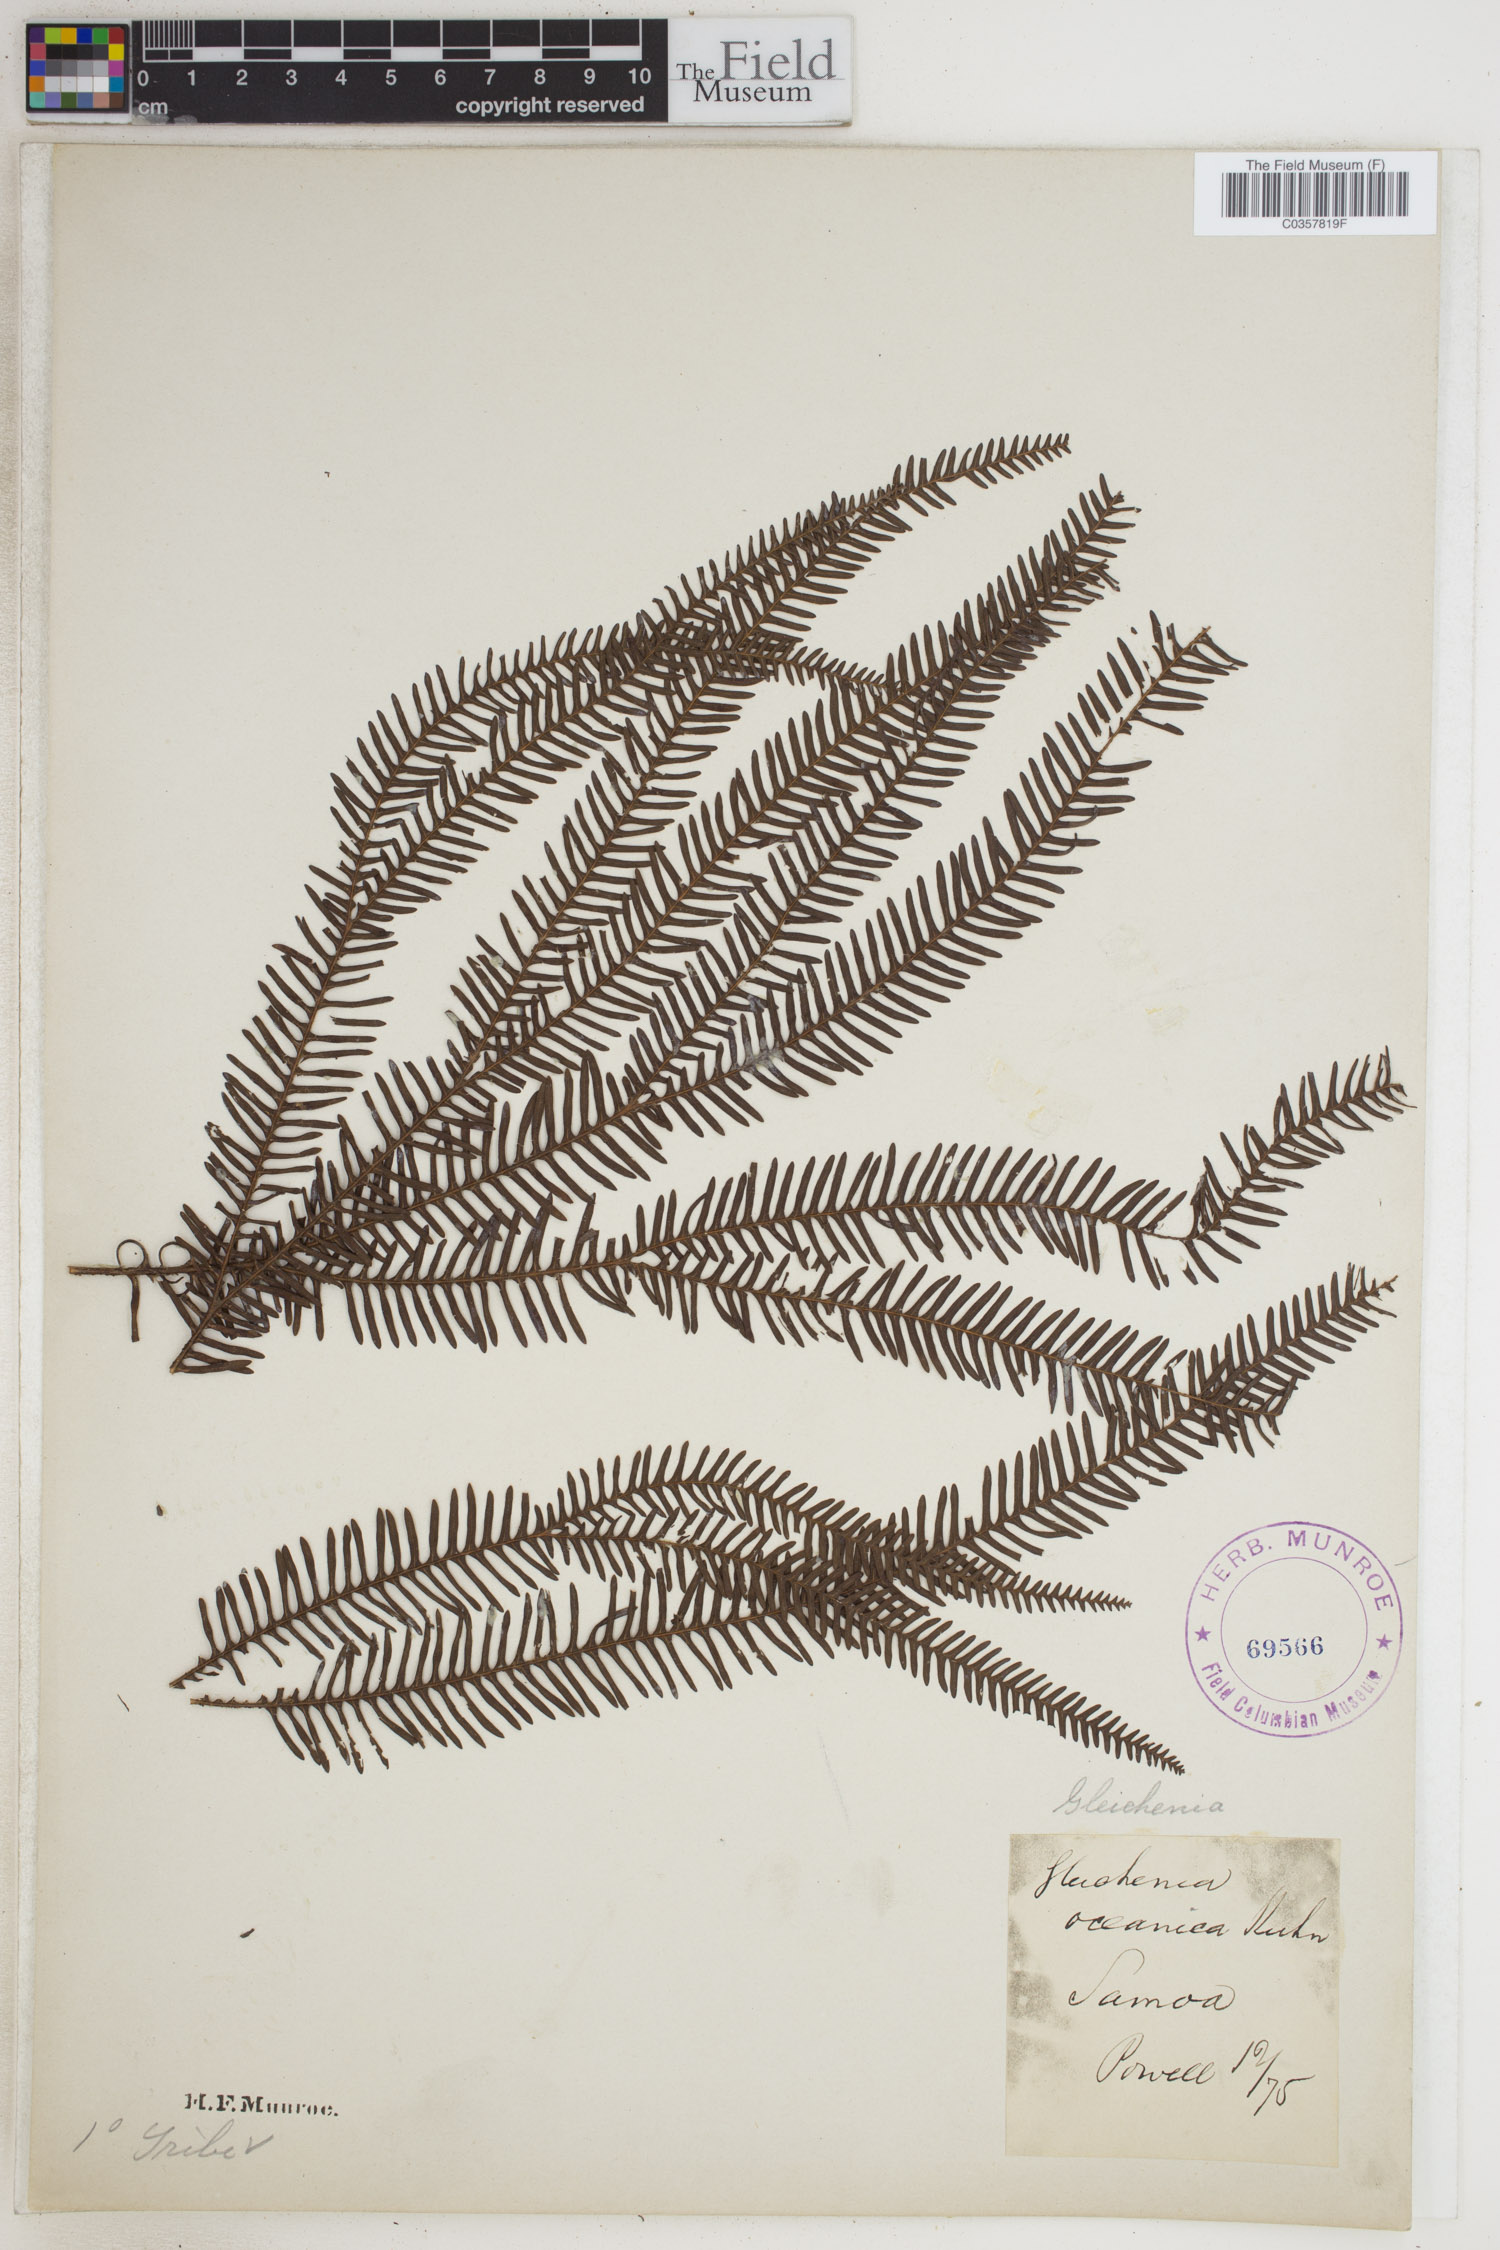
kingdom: Plantae
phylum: Tracheophyta
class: Polypodiopsida
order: Gleicheniales
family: Gleicheniaceae
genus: Sticherus
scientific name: Sticherus oceanicus
